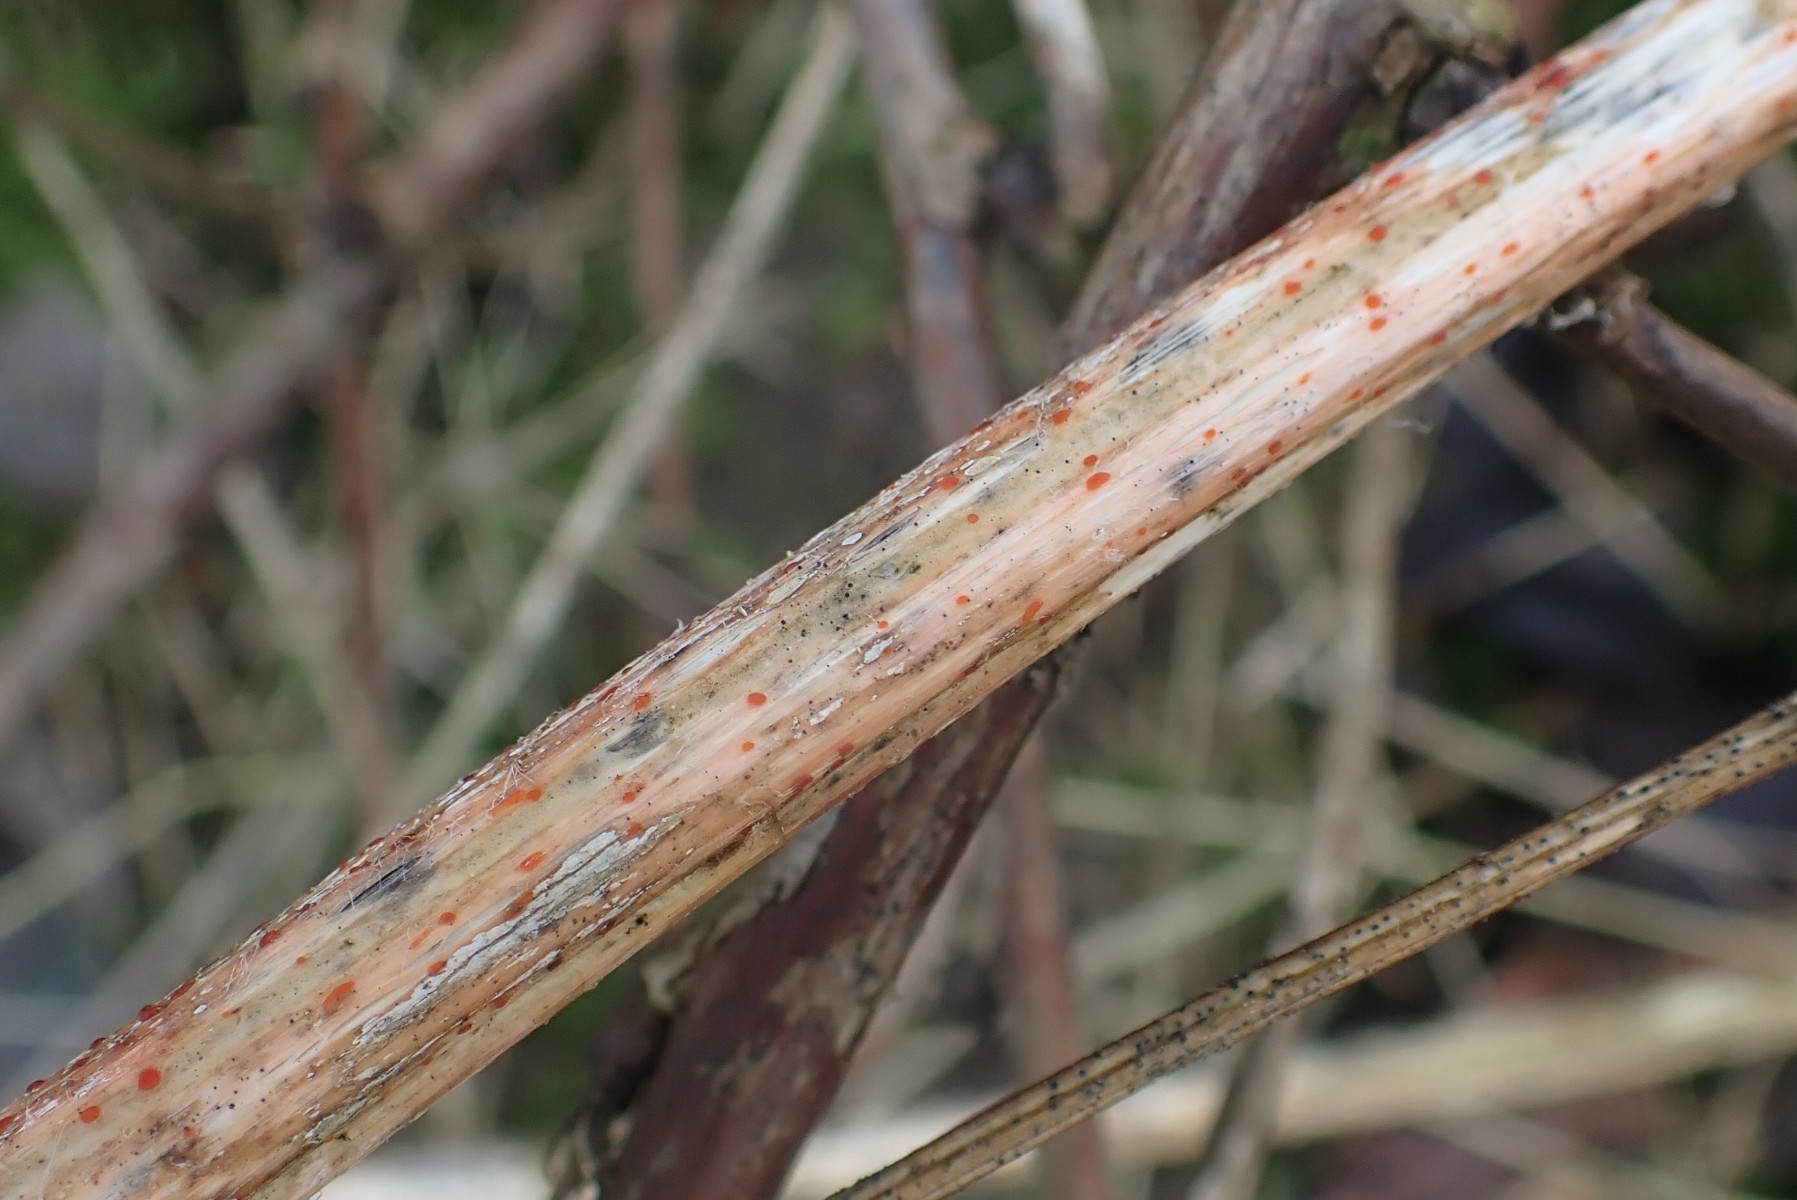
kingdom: Fungi
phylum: Ascomycota
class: Leotiomycetes
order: Helotiales
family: Calloriaceae
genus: Calloria
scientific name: Calloria urticae
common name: nælde-orangeskive
